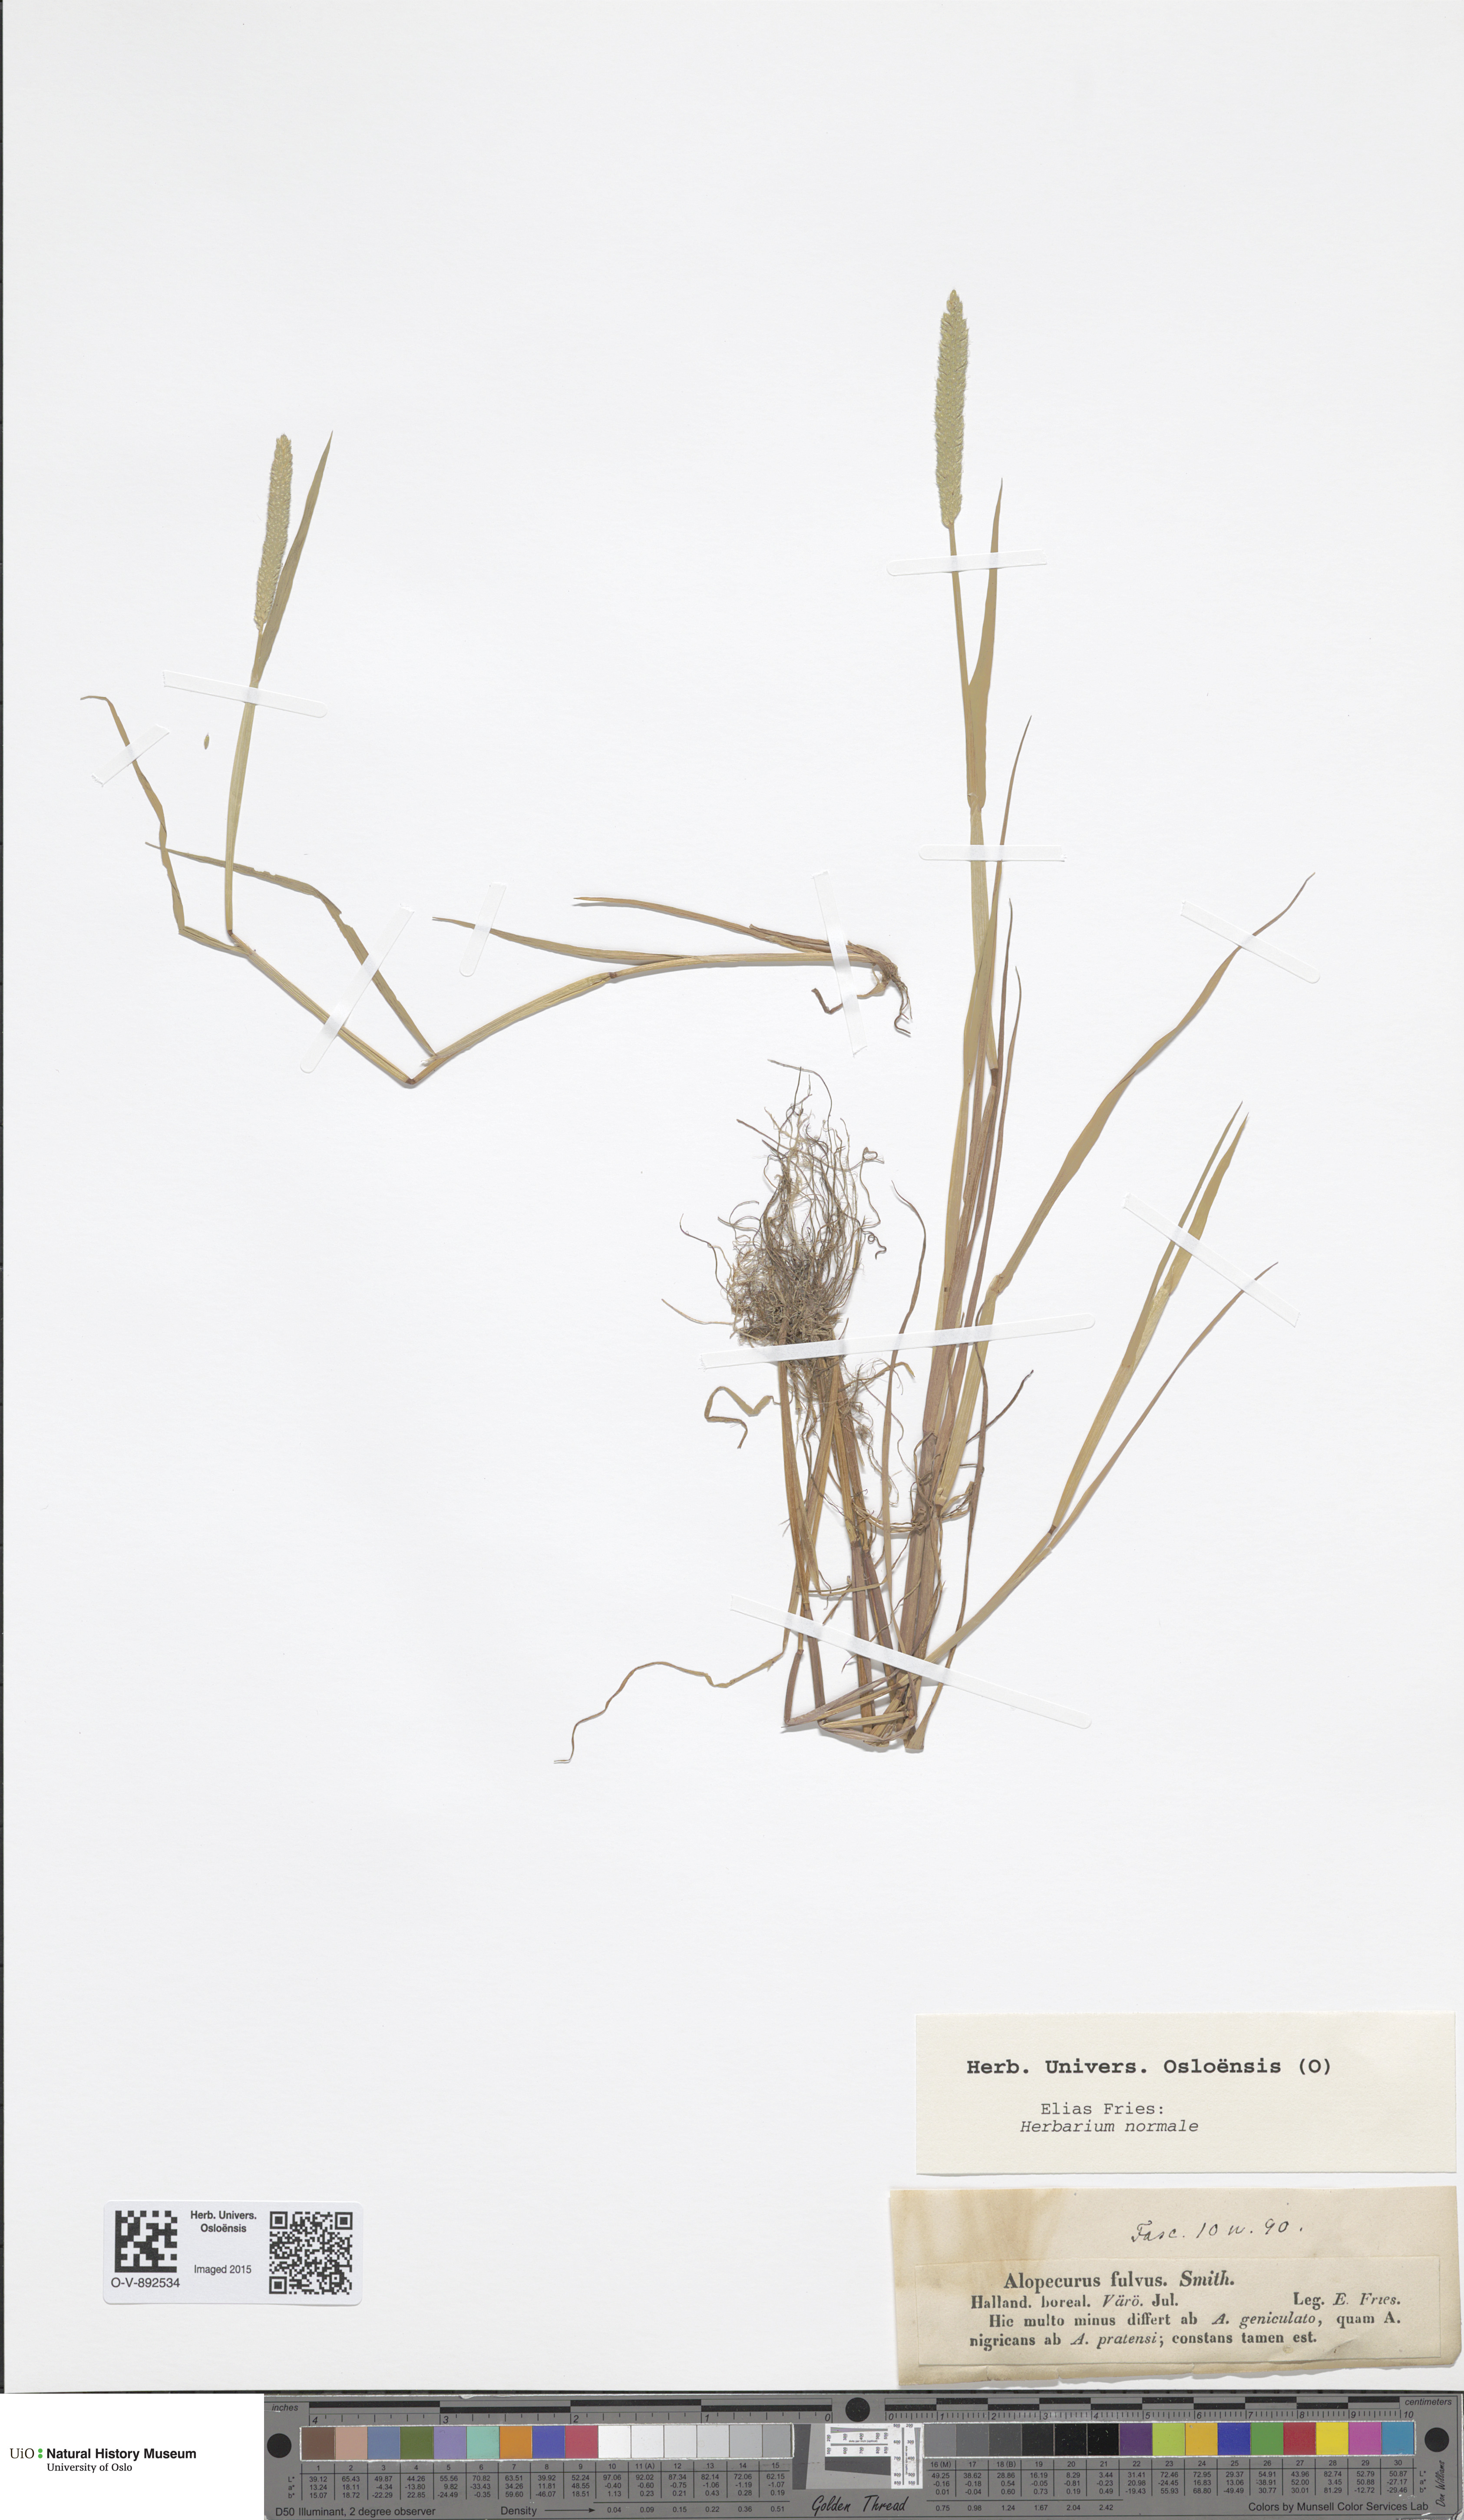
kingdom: Plantae
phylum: Tracheophyta
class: Liliopsida
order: Poales
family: Poaceae
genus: Alopecurus
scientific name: Alopecurus aequalis
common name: Orange foxtail
